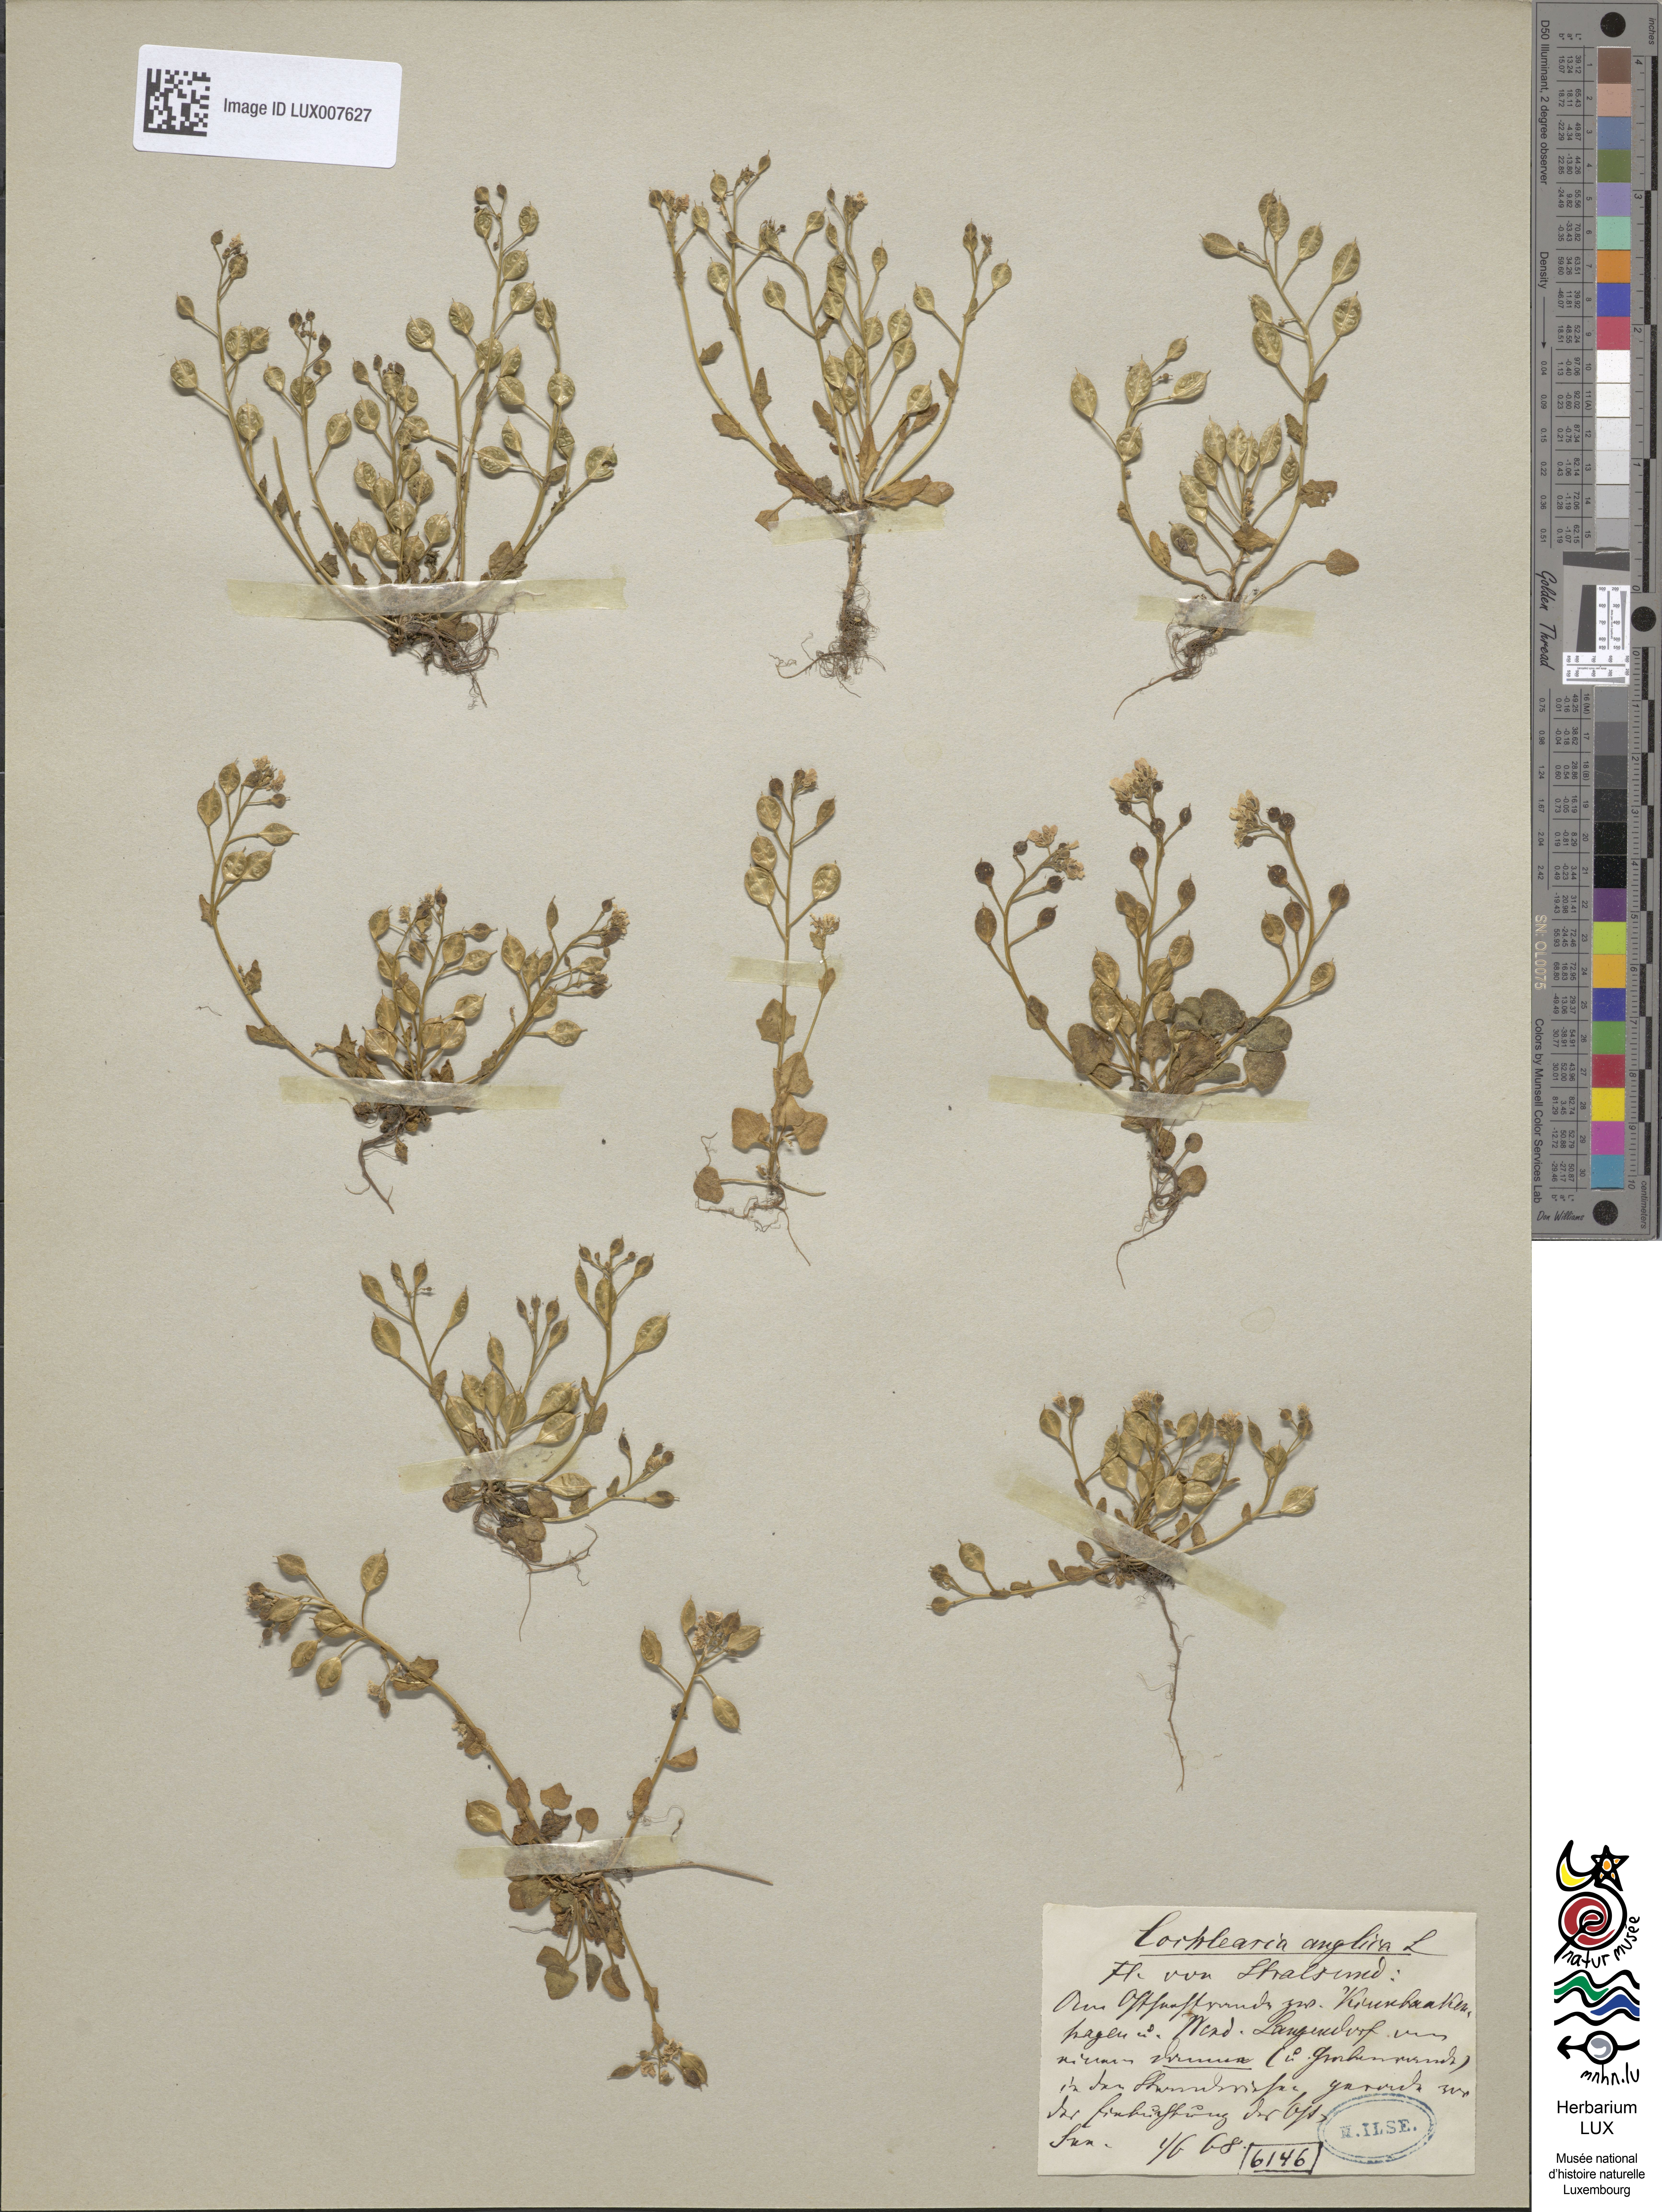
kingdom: Plantae
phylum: Tracheophyta
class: Magnoliopsida
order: Brassicales
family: Brassicaceae
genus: Cochlearia
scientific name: Cochlearia anglica
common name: English scurvygrass
